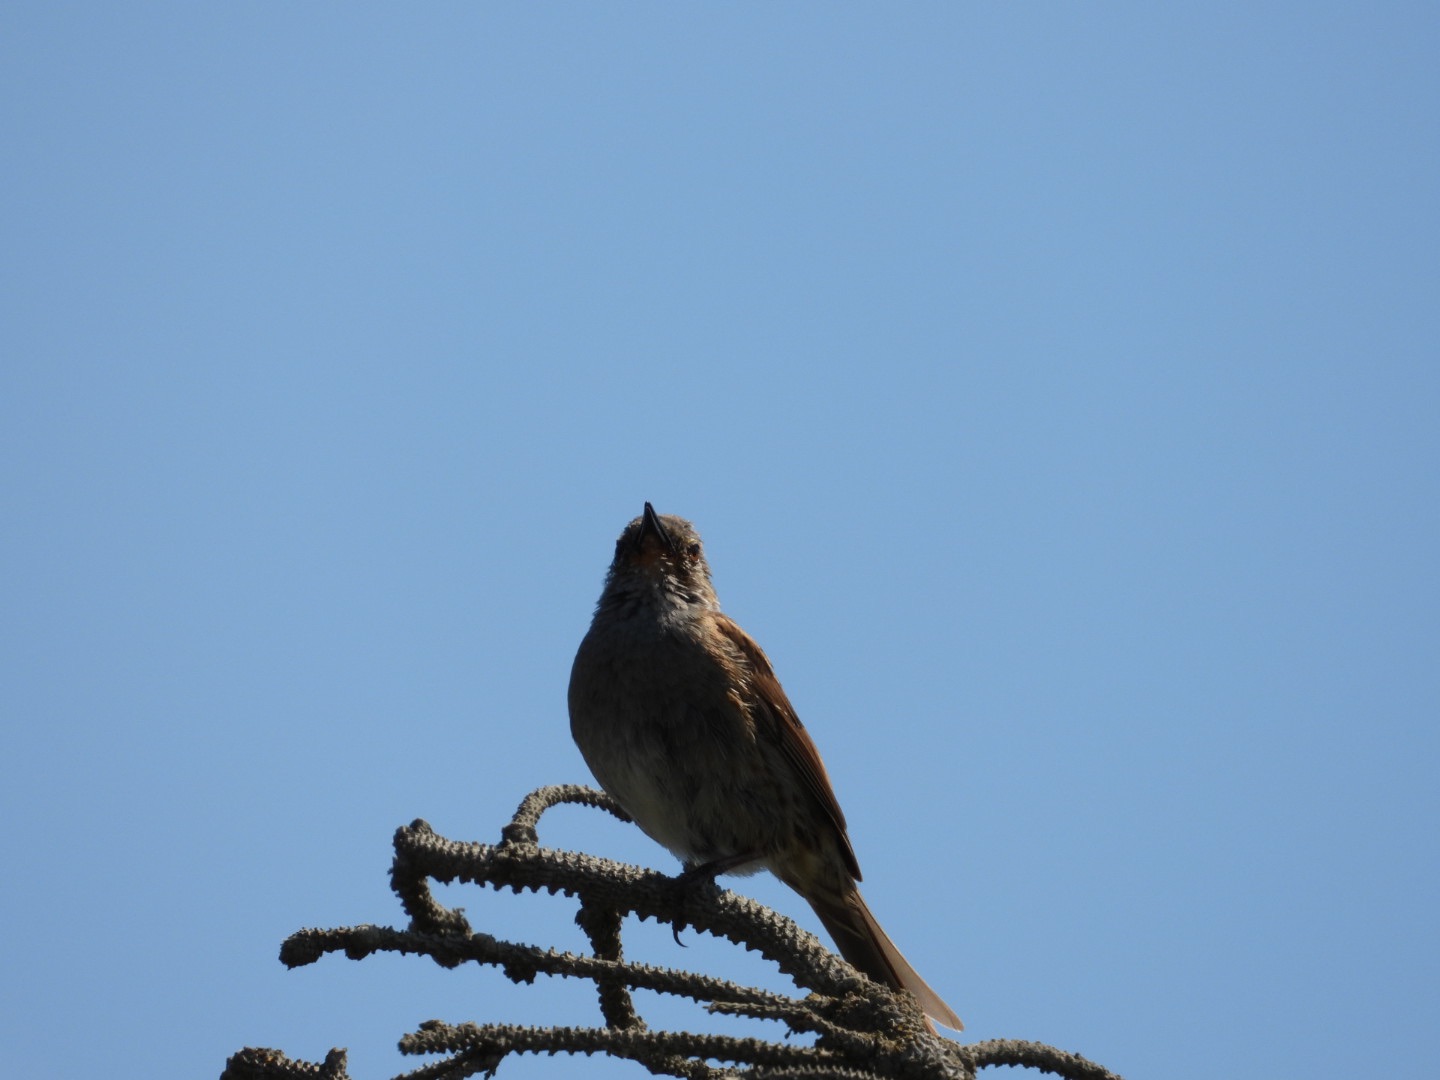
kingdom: Animalia
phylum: Chordata
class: Aves
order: Passeriformes
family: Prunellidae
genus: Prunella
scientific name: Prunella modularis
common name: Jernspurv
